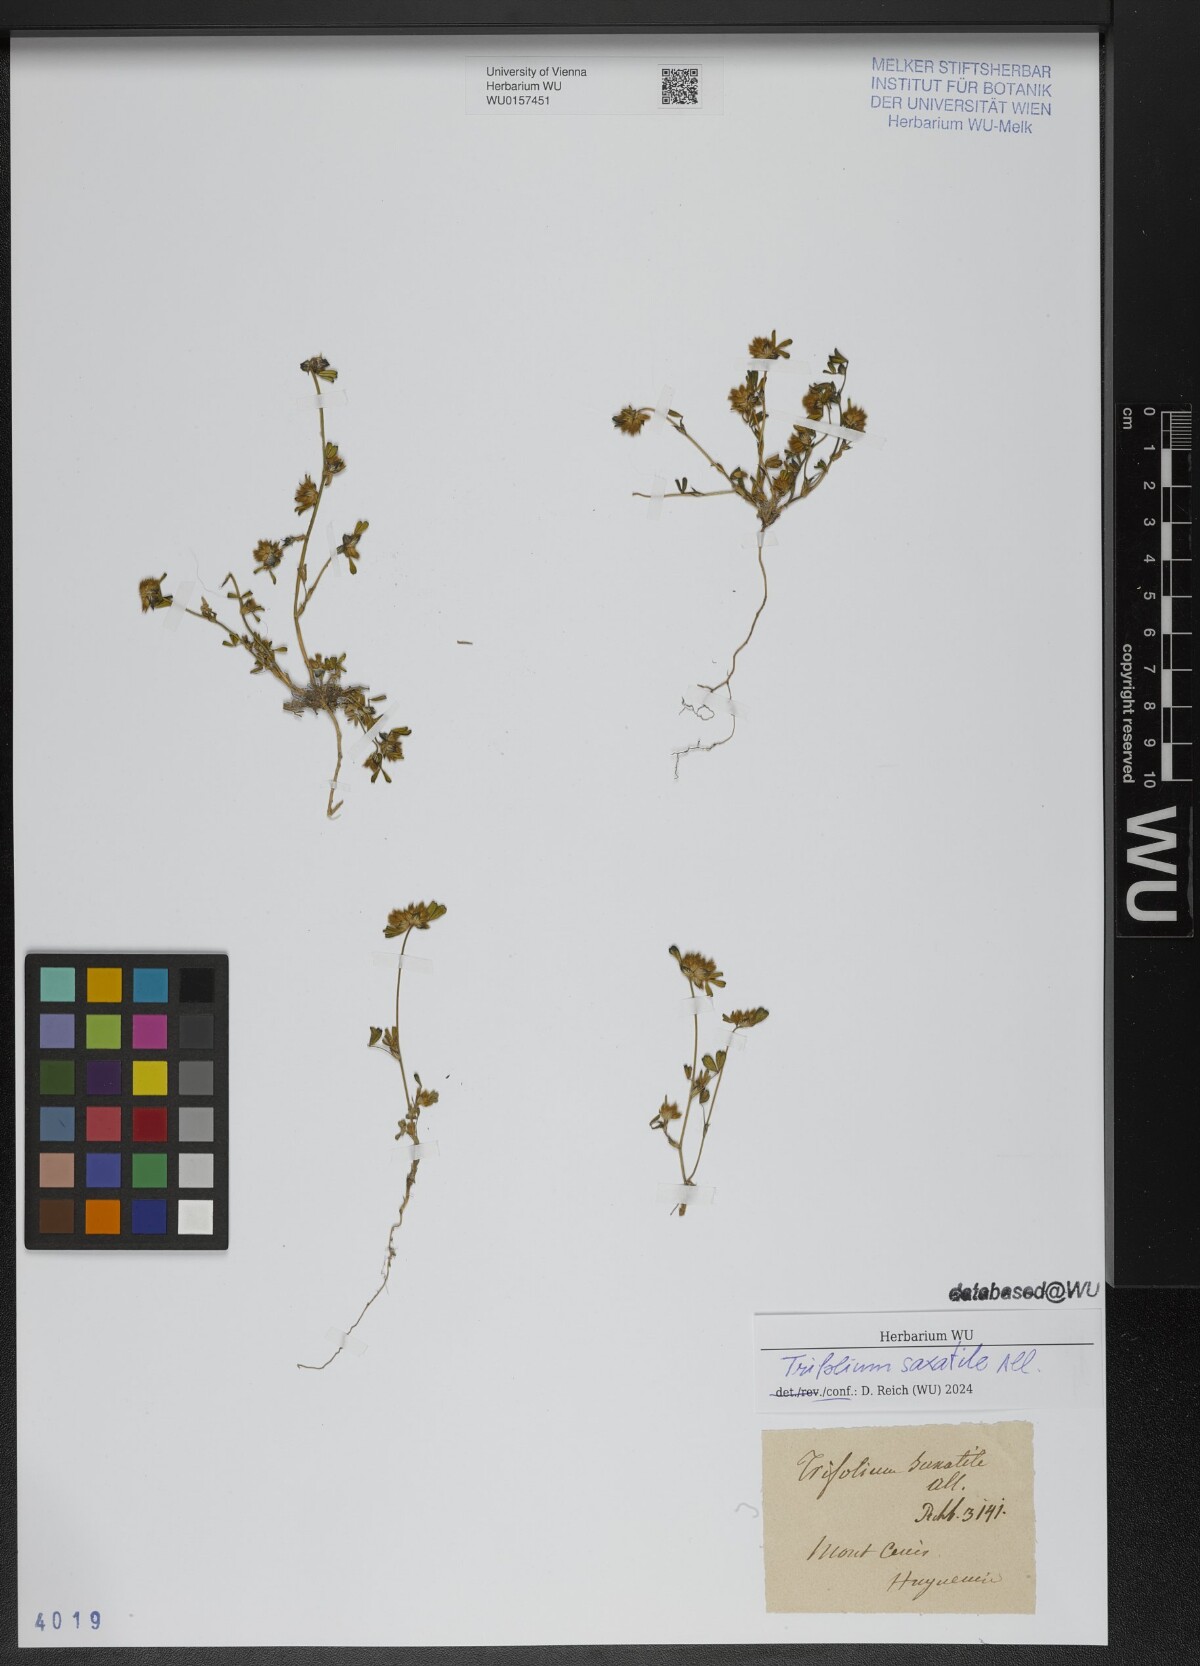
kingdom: Plantae
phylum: Tracheophyta
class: Magnoliopsida
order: Fabales
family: Fabaceae
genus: Trifolium
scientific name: Trifolium saxatile
